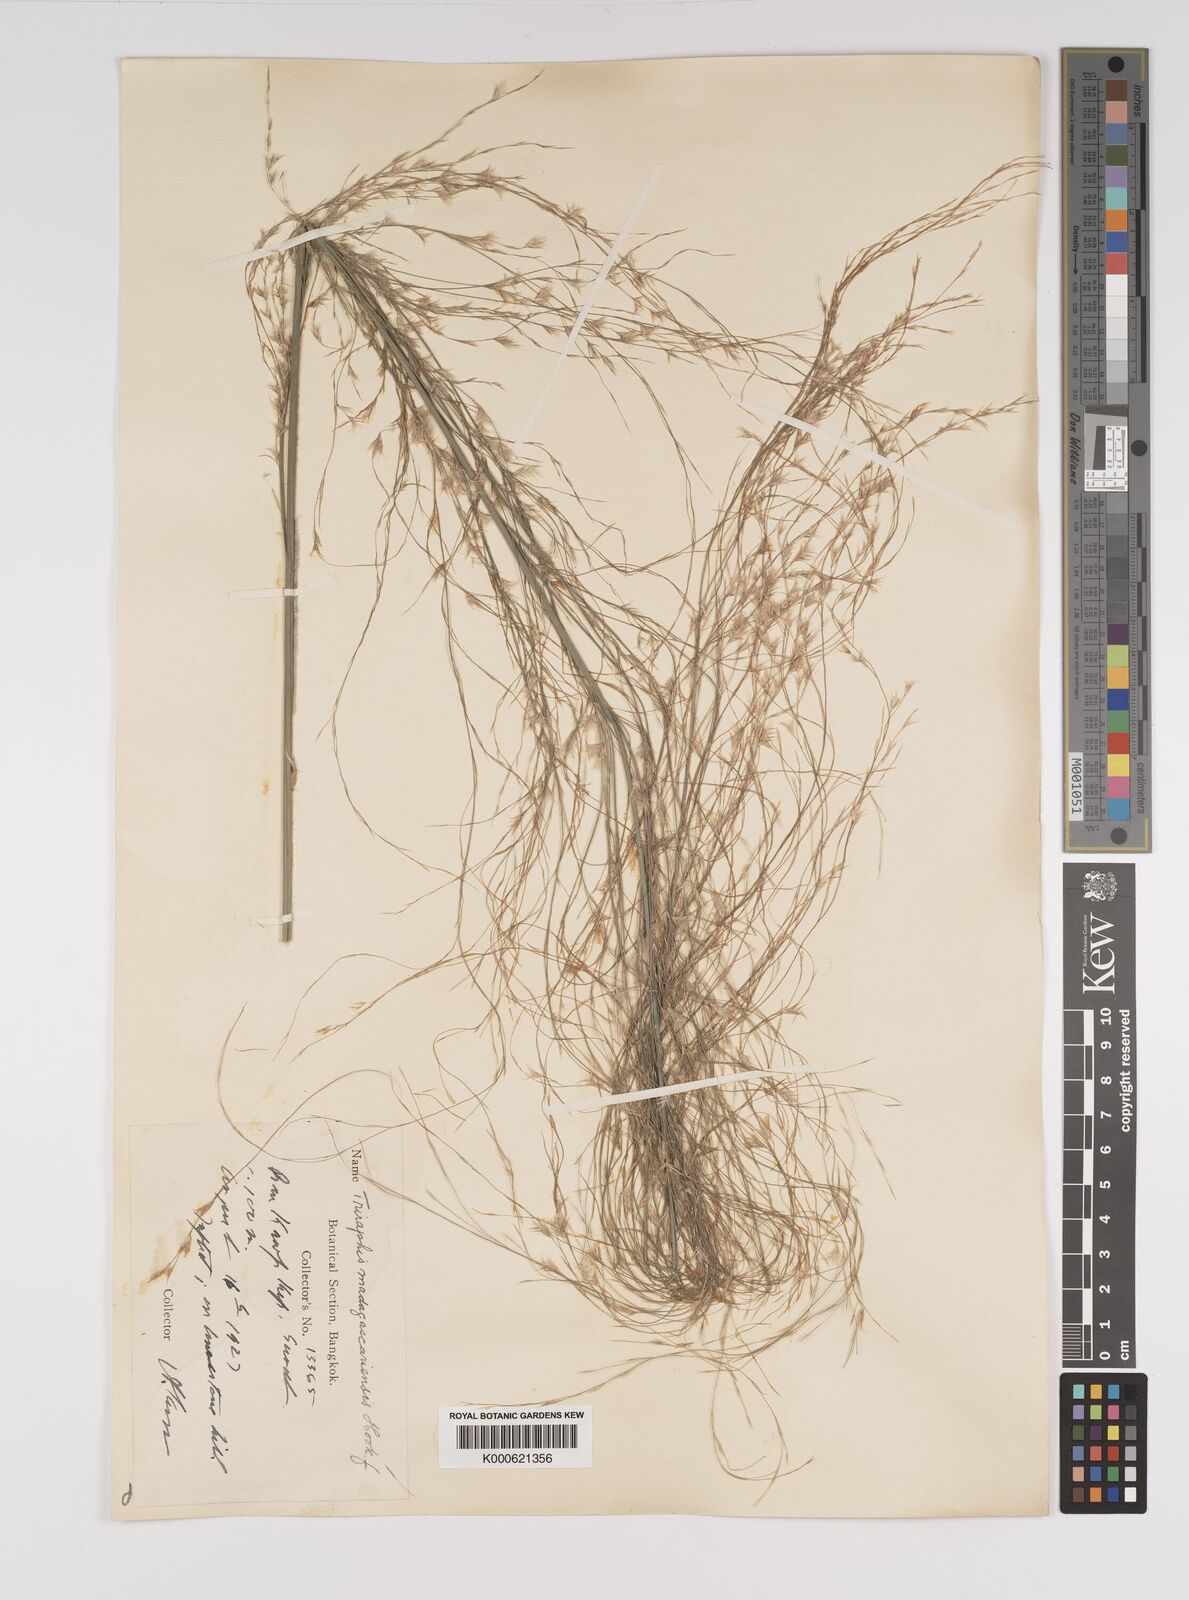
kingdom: Plantae
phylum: Tracheophyta
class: Liliopsida
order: Poales
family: Poaceae
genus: Neyraudia
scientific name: Neyraudia reynaudiana
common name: Silkreed
